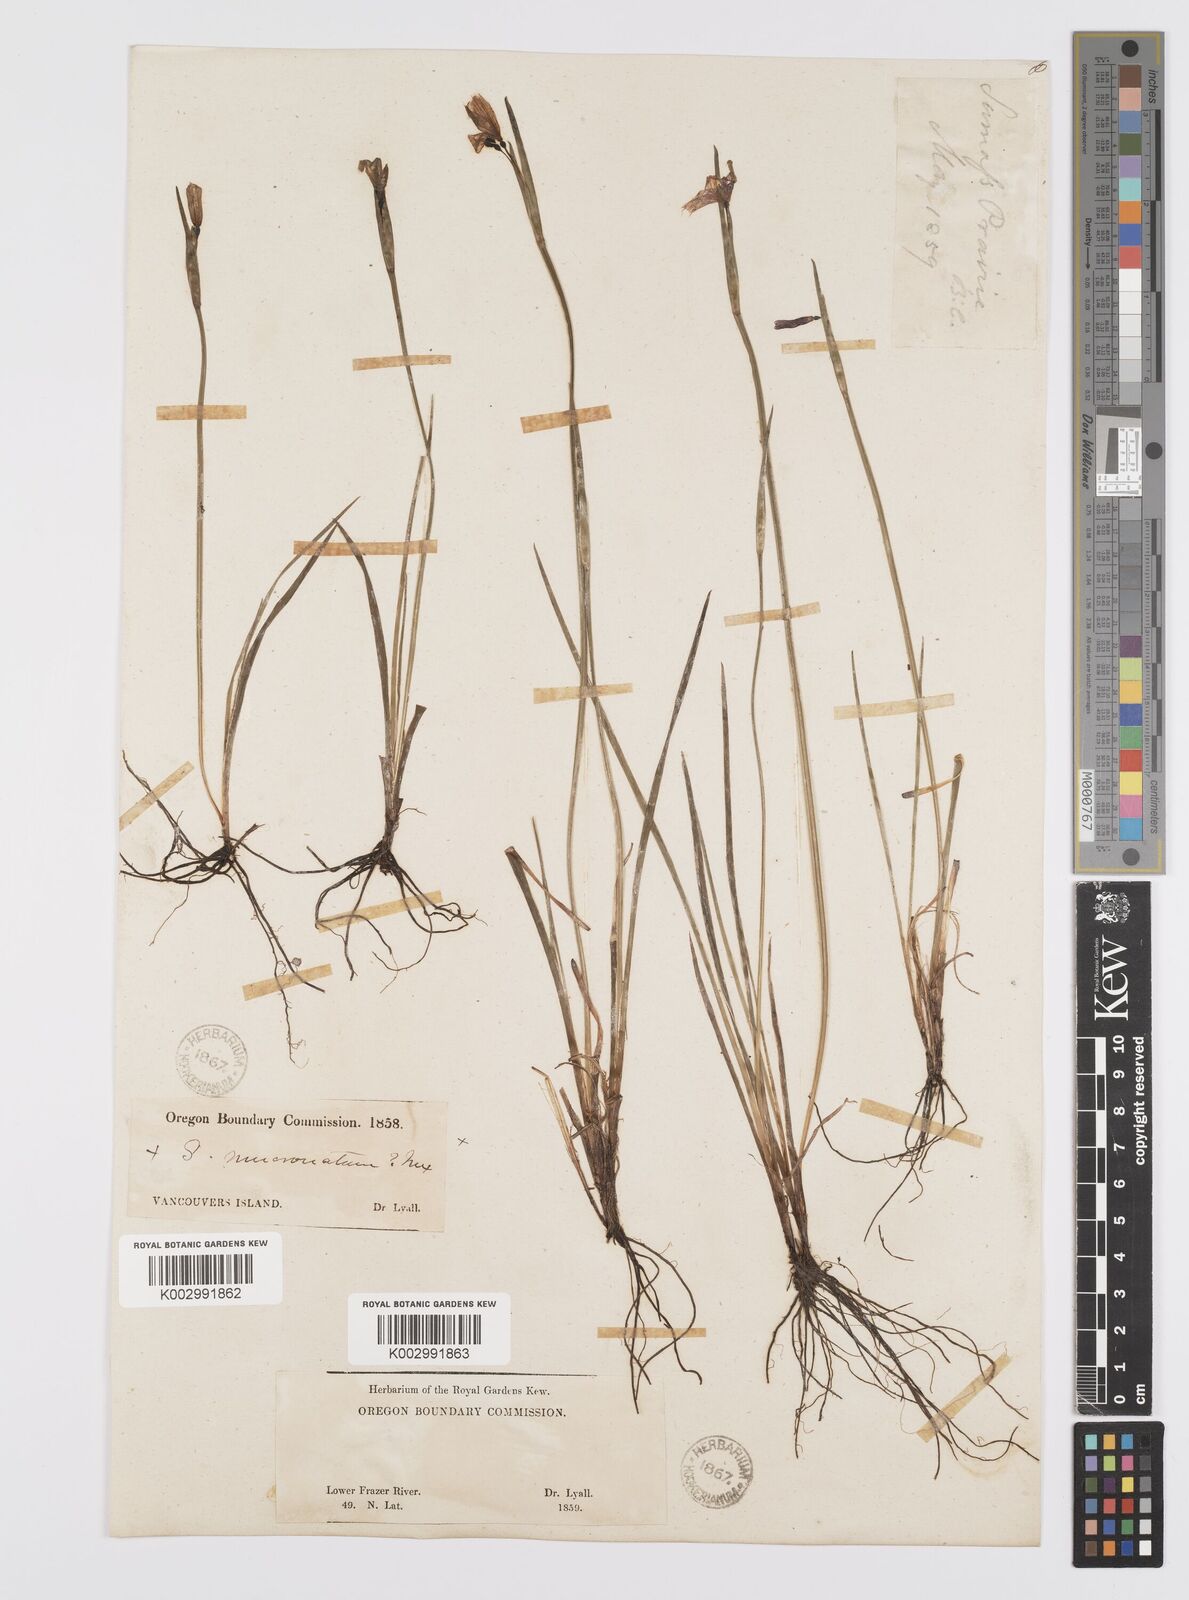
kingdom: Plantae
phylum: Tracheophyta
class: Liliopsida
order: Asparagales
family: Iridaceae
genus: Sisyrinchium
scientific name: Sisyrinchium bermudiana
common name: Blue-eyed-grass
